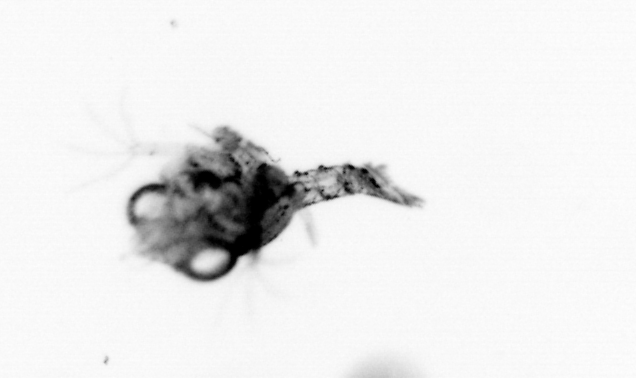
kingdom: Animalia
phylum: Arthropoda
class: Malacostraca
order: Decapoda
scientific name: Decapoda
